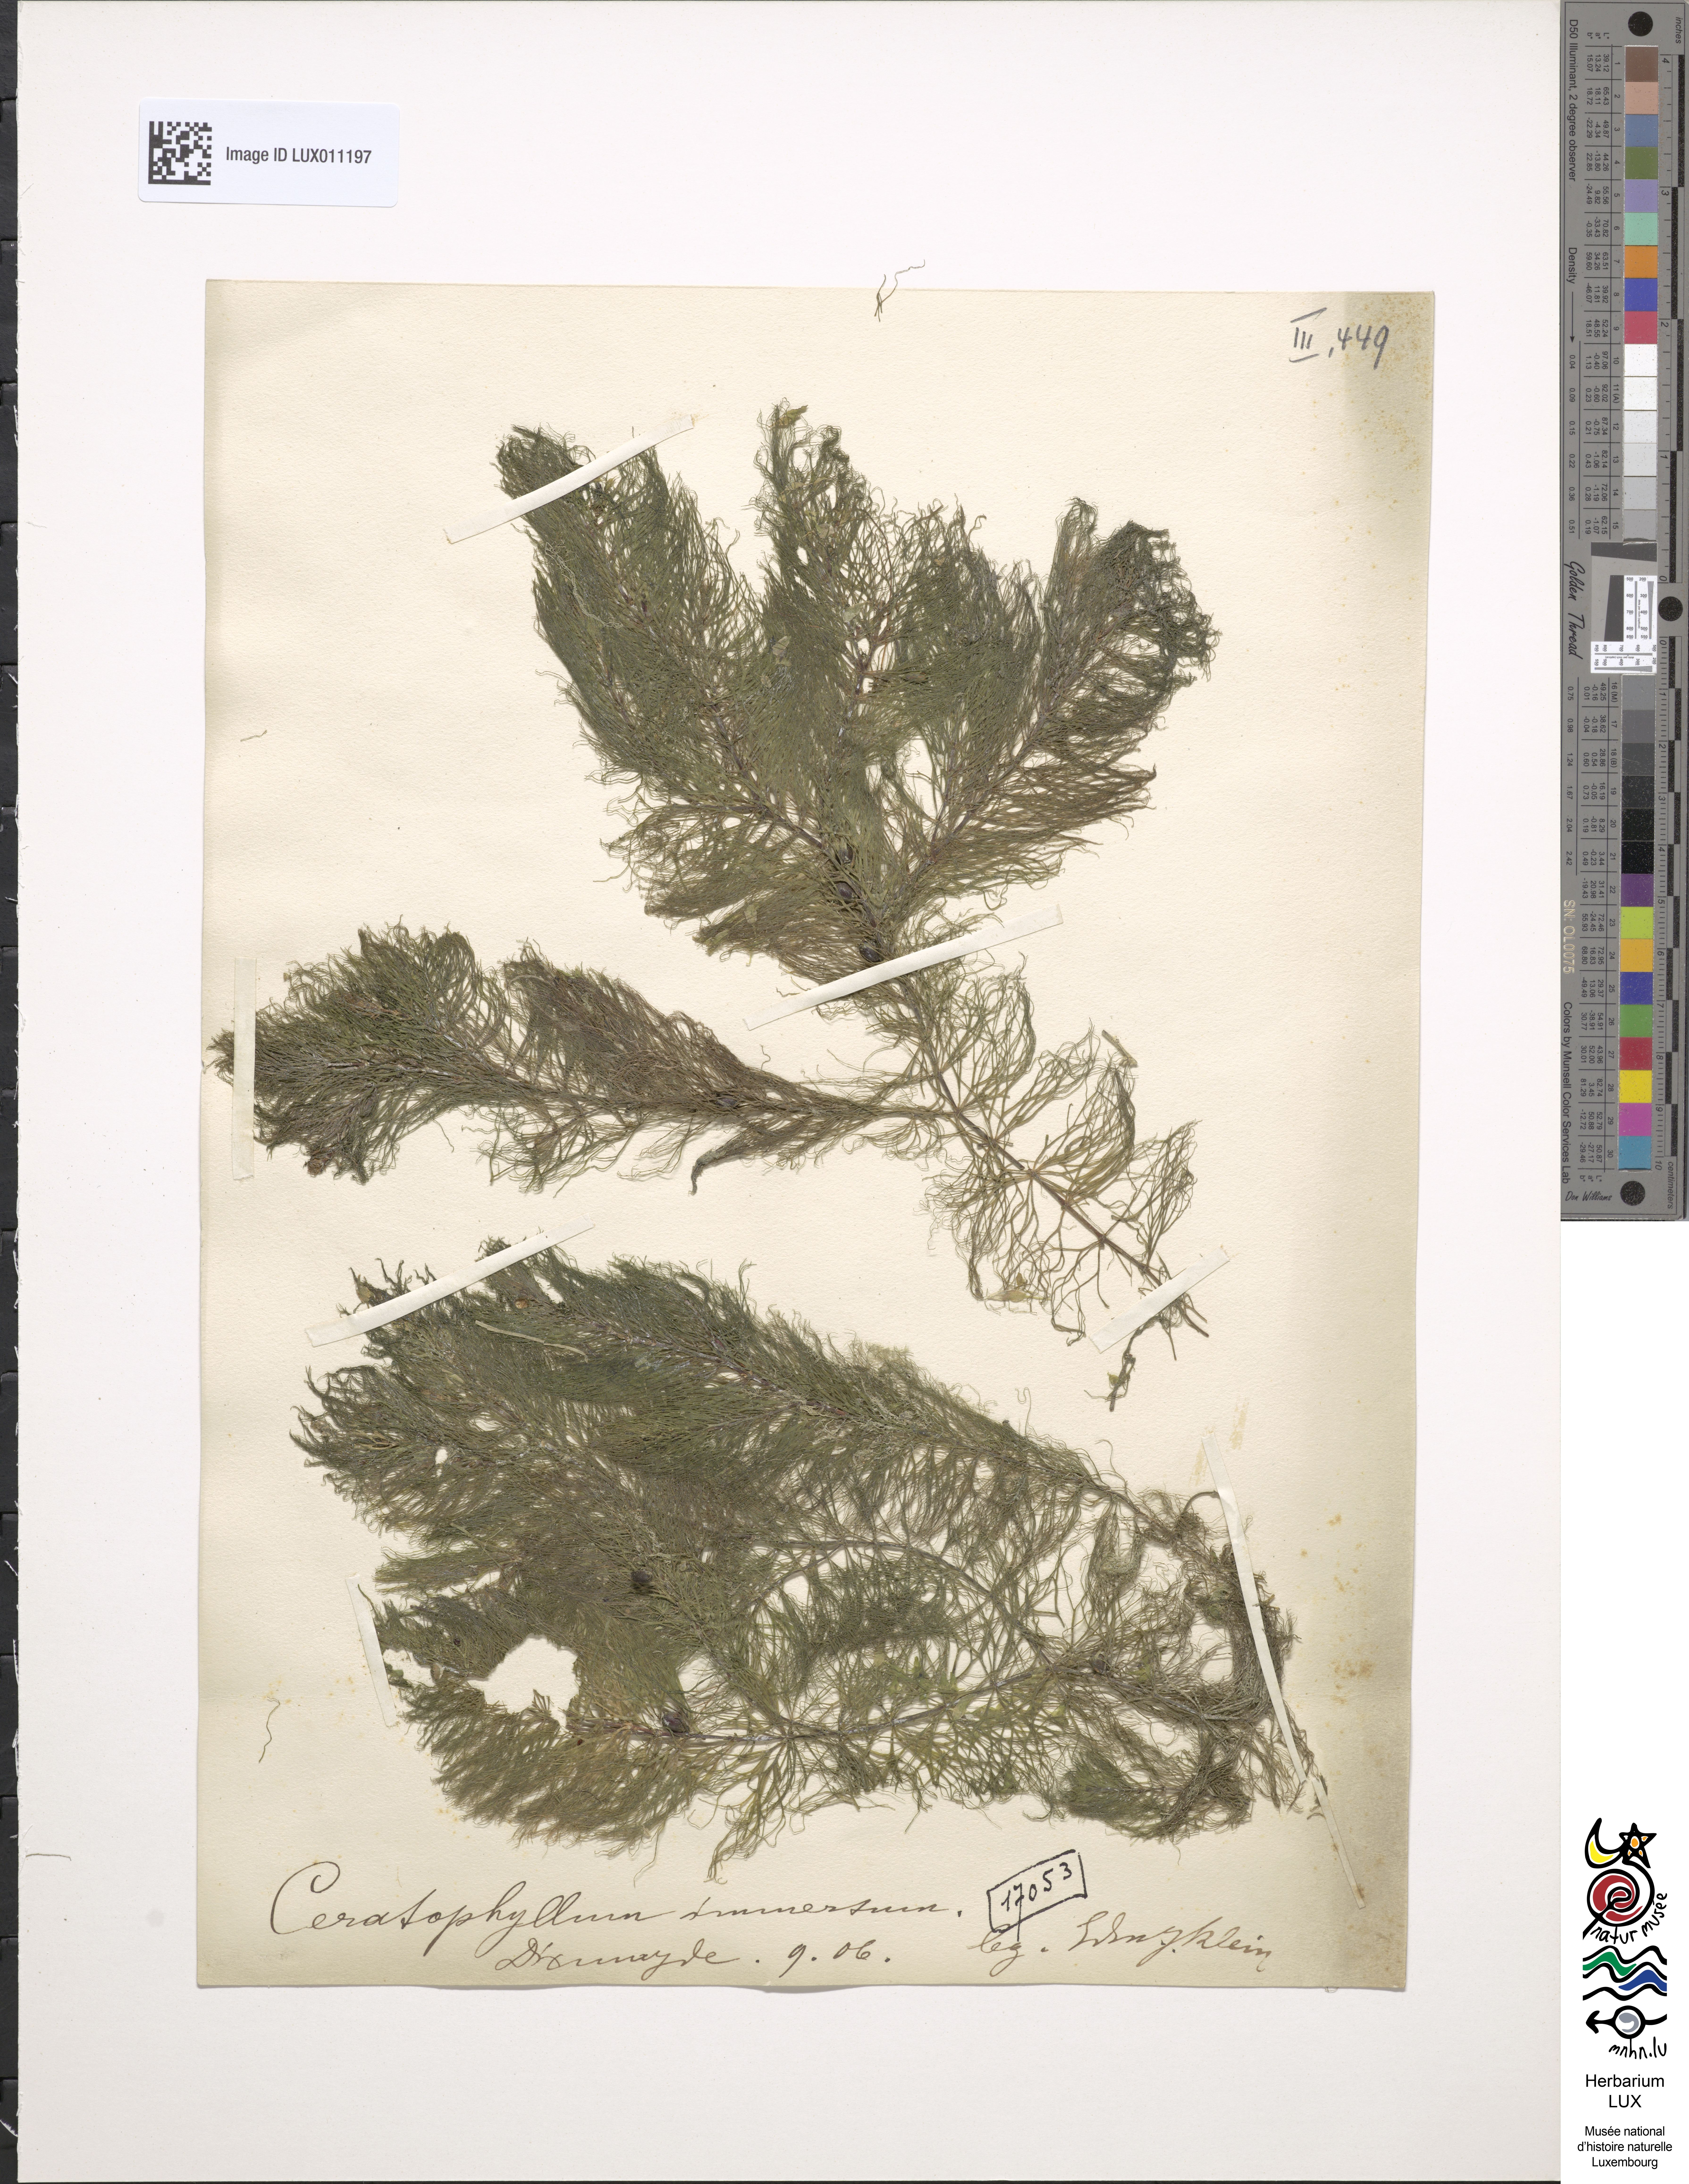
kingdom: Plantae
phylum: Tracheophyta
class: Magnoliopsida
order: Ceratophyllales
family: Ceratophyllaceae
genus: Ceratophyllum
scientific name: Ceratophyllum submersum
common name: Soft hornwort
